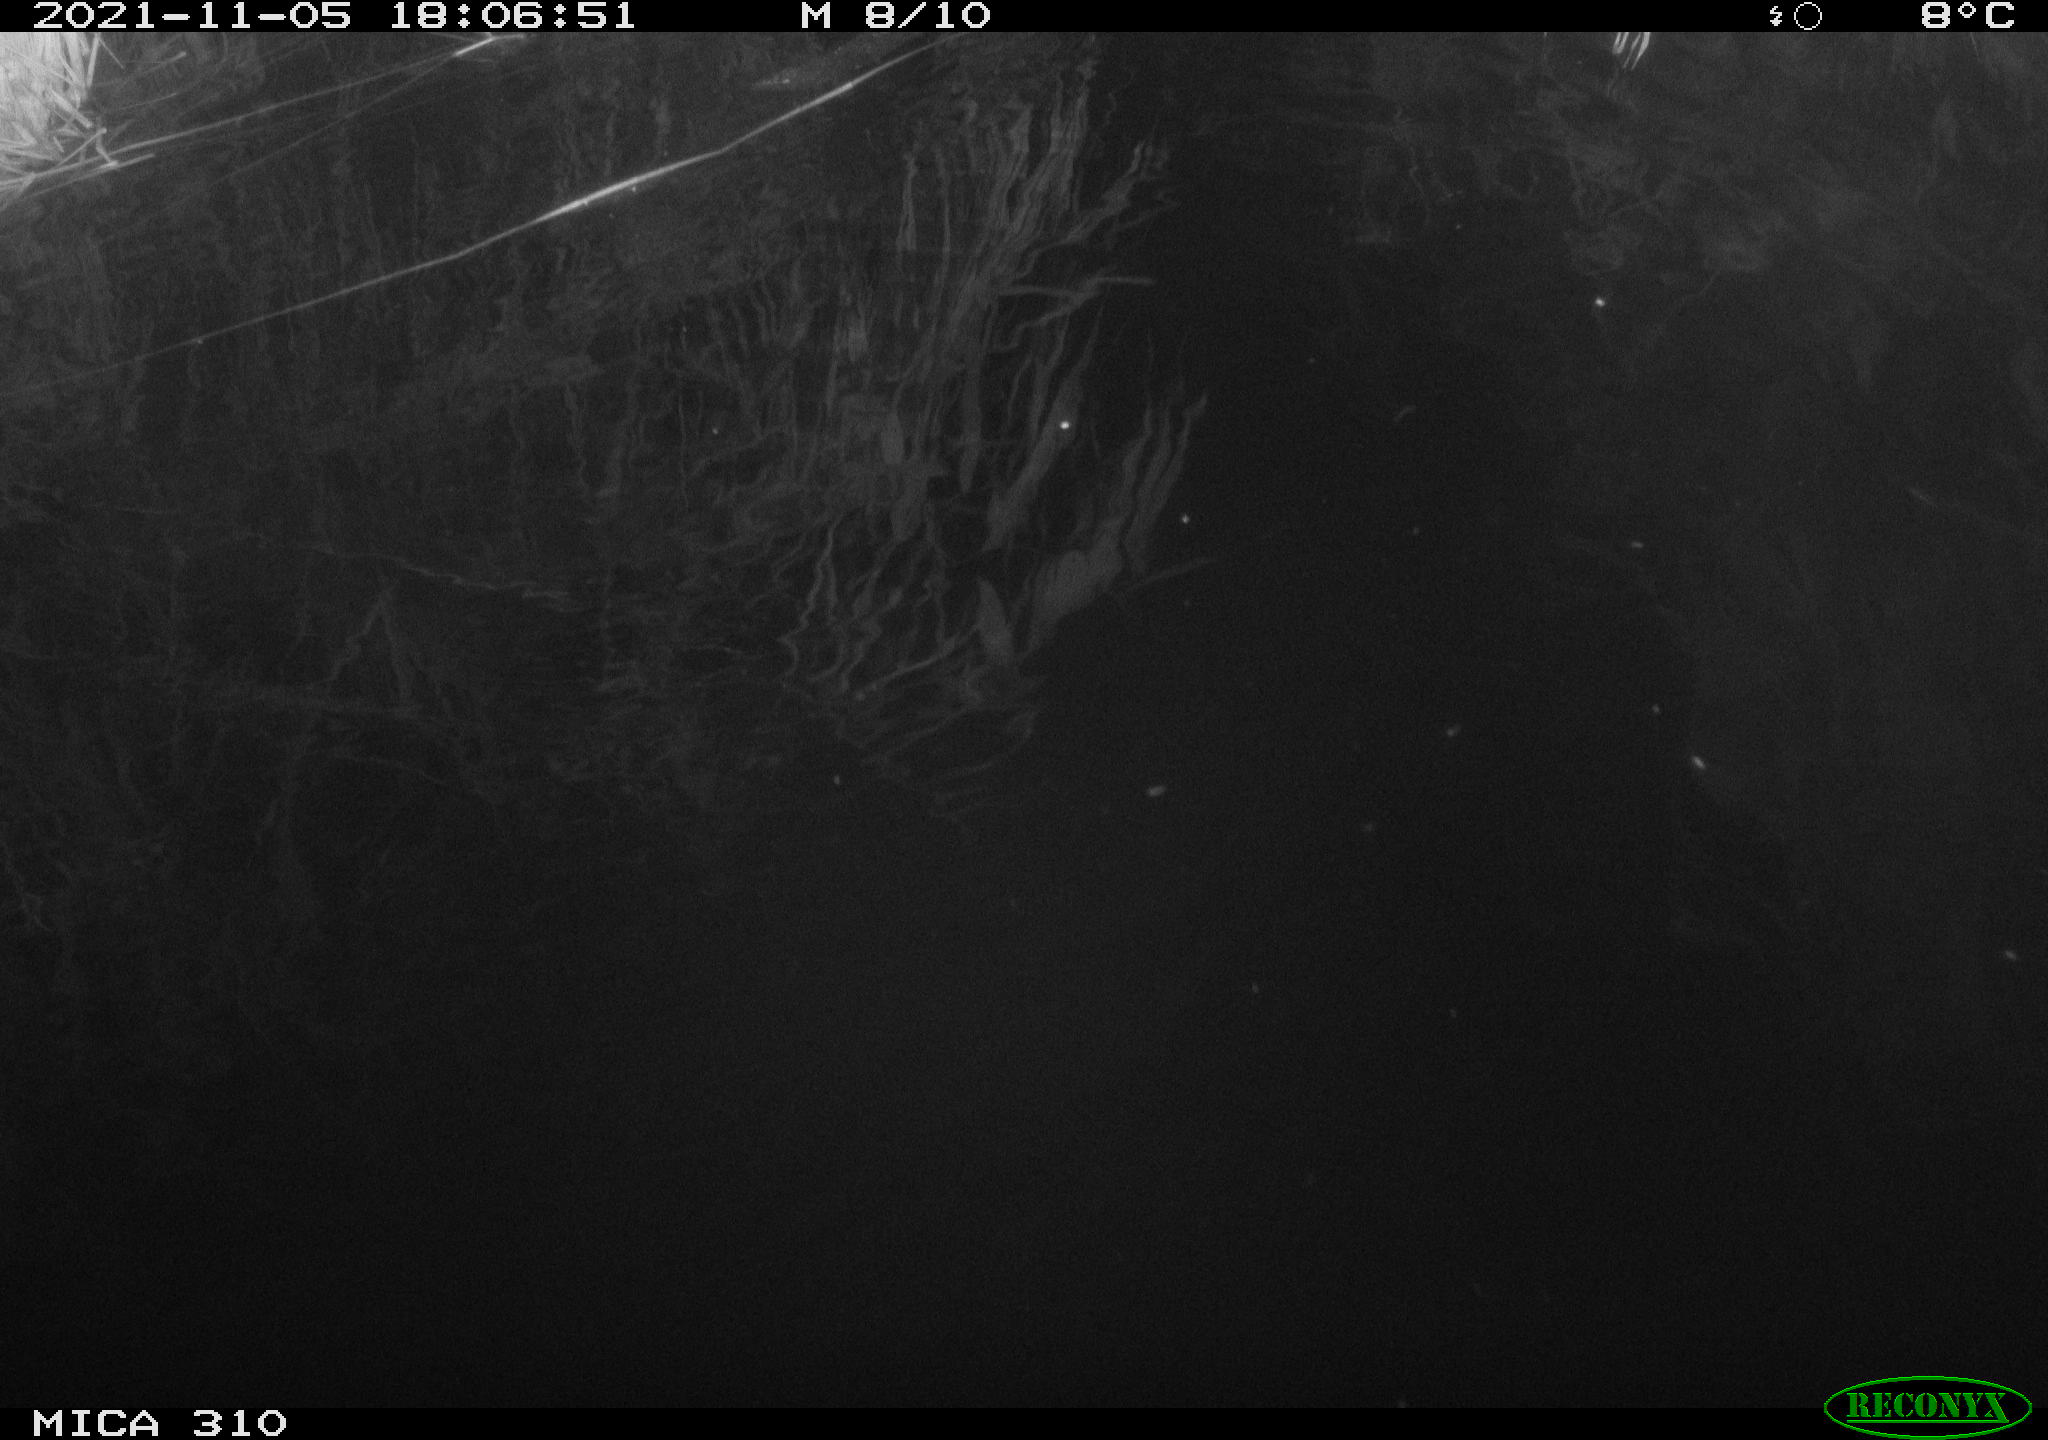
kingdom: Animalia
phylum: Chordata
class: Mammalia
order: Rodentia
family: Muridae
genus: Rattus
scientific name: Rattus norvegicus
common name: Brown rat
